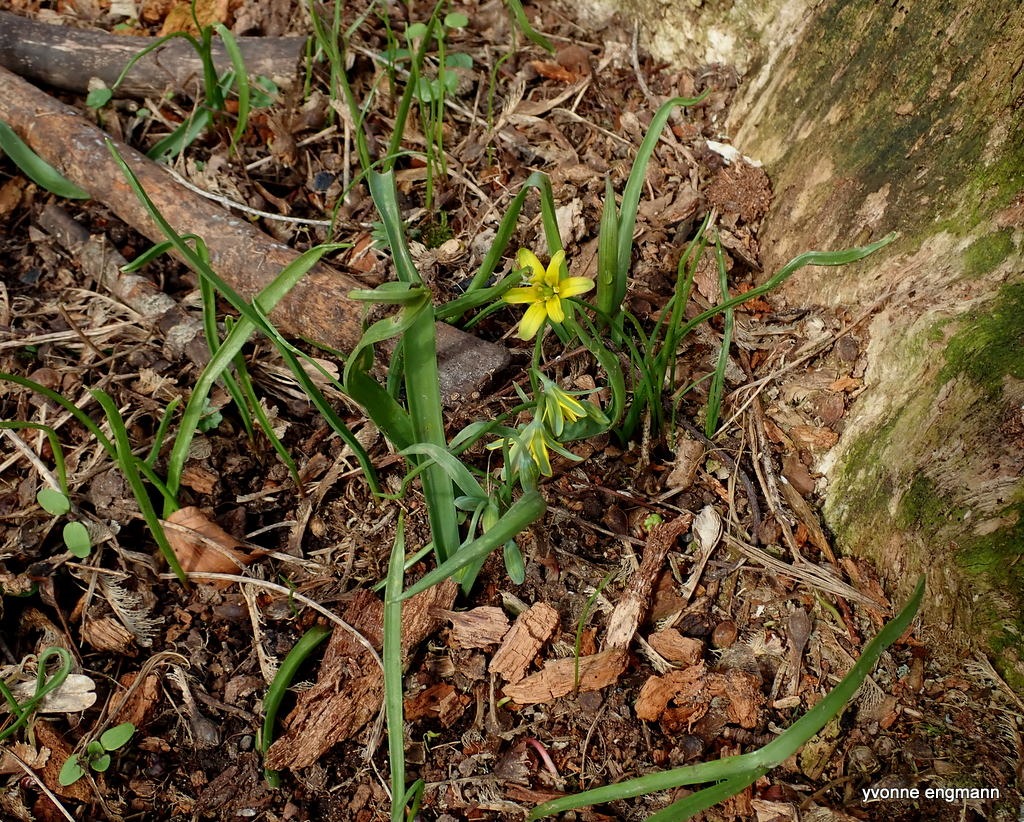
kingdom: Plantae
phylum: Tracheophyta
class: Liliopsida
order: Liliales
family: Liliaceae
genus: Gagea
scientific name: Gagea lutea
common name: Almindelig guldstjerne
